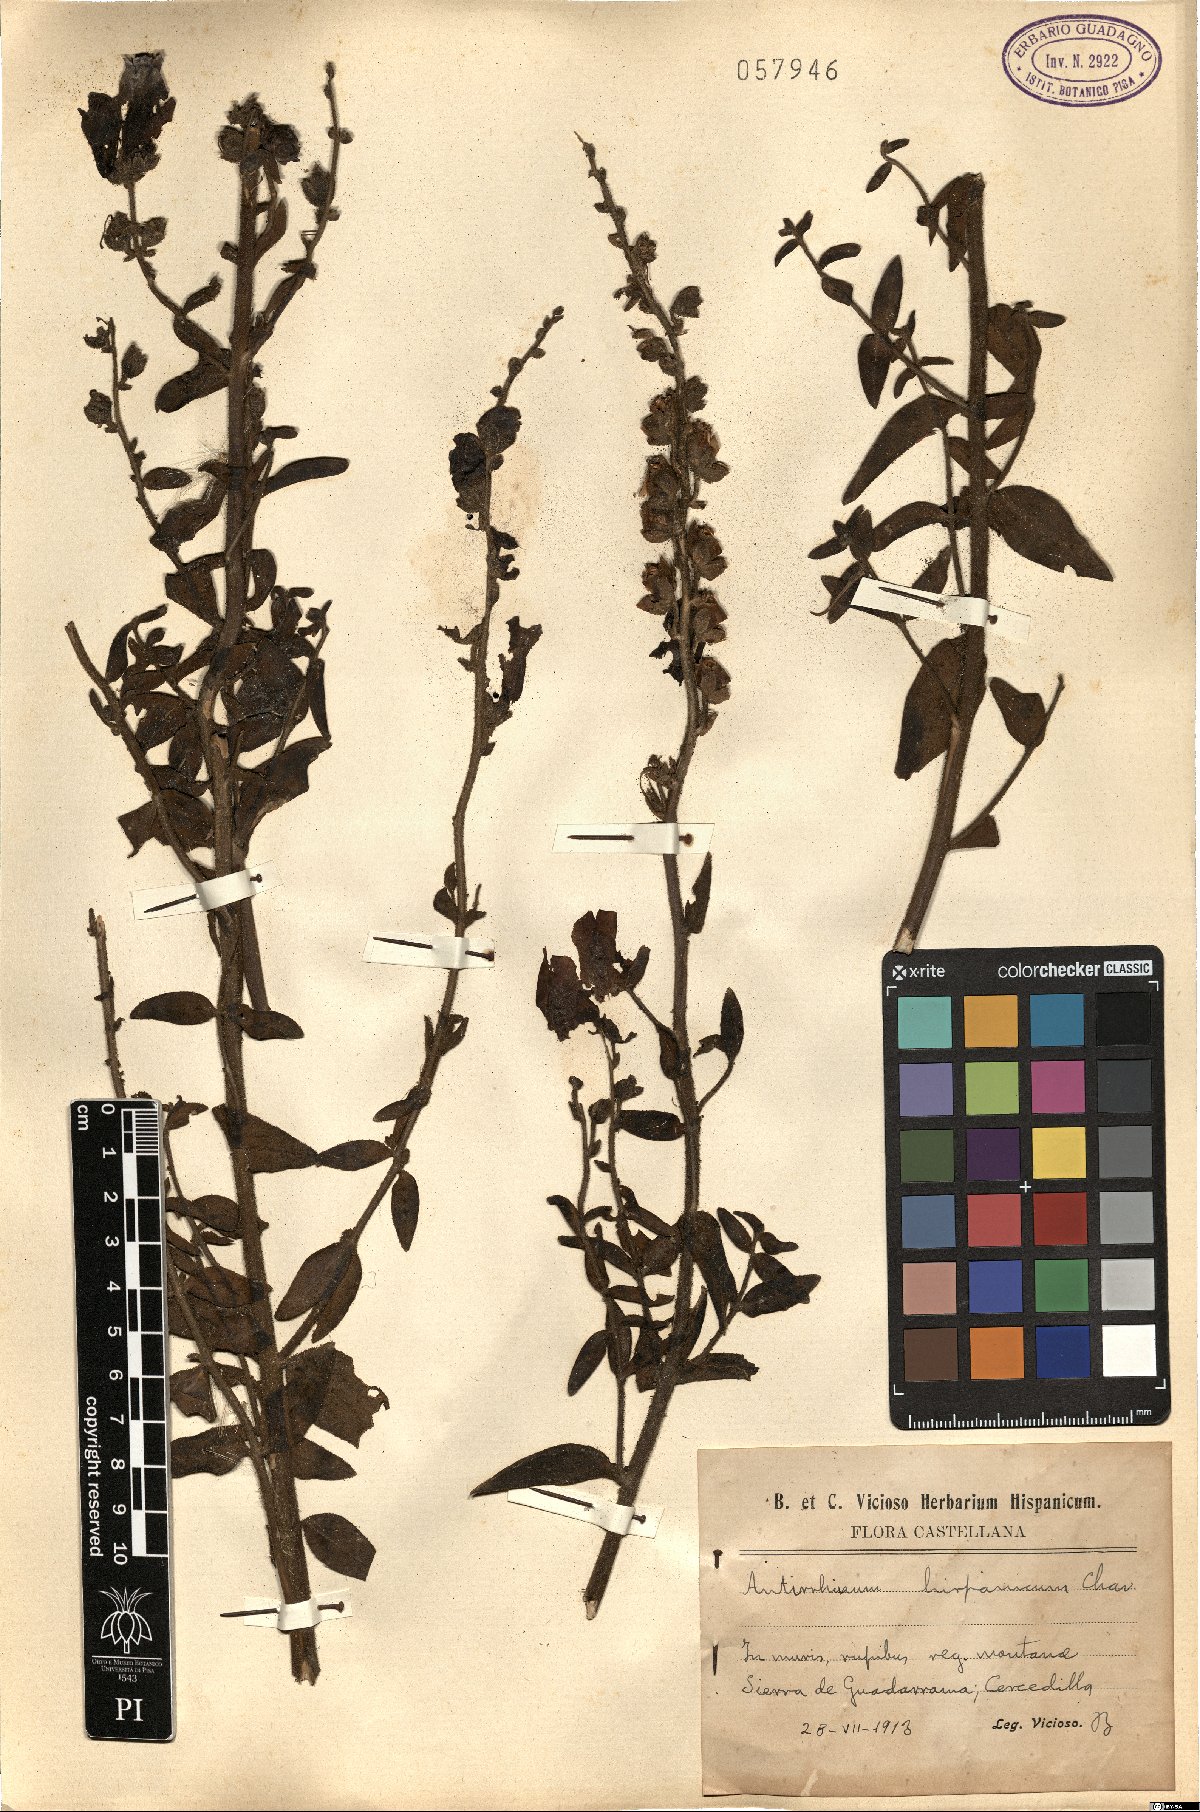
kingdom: Plantae
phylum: Tracheophyta
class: Magnoliopsida
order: Lamiales
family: Plantaginaceae
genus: Antirrhinum
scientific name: Antirrhinum hispanicum
